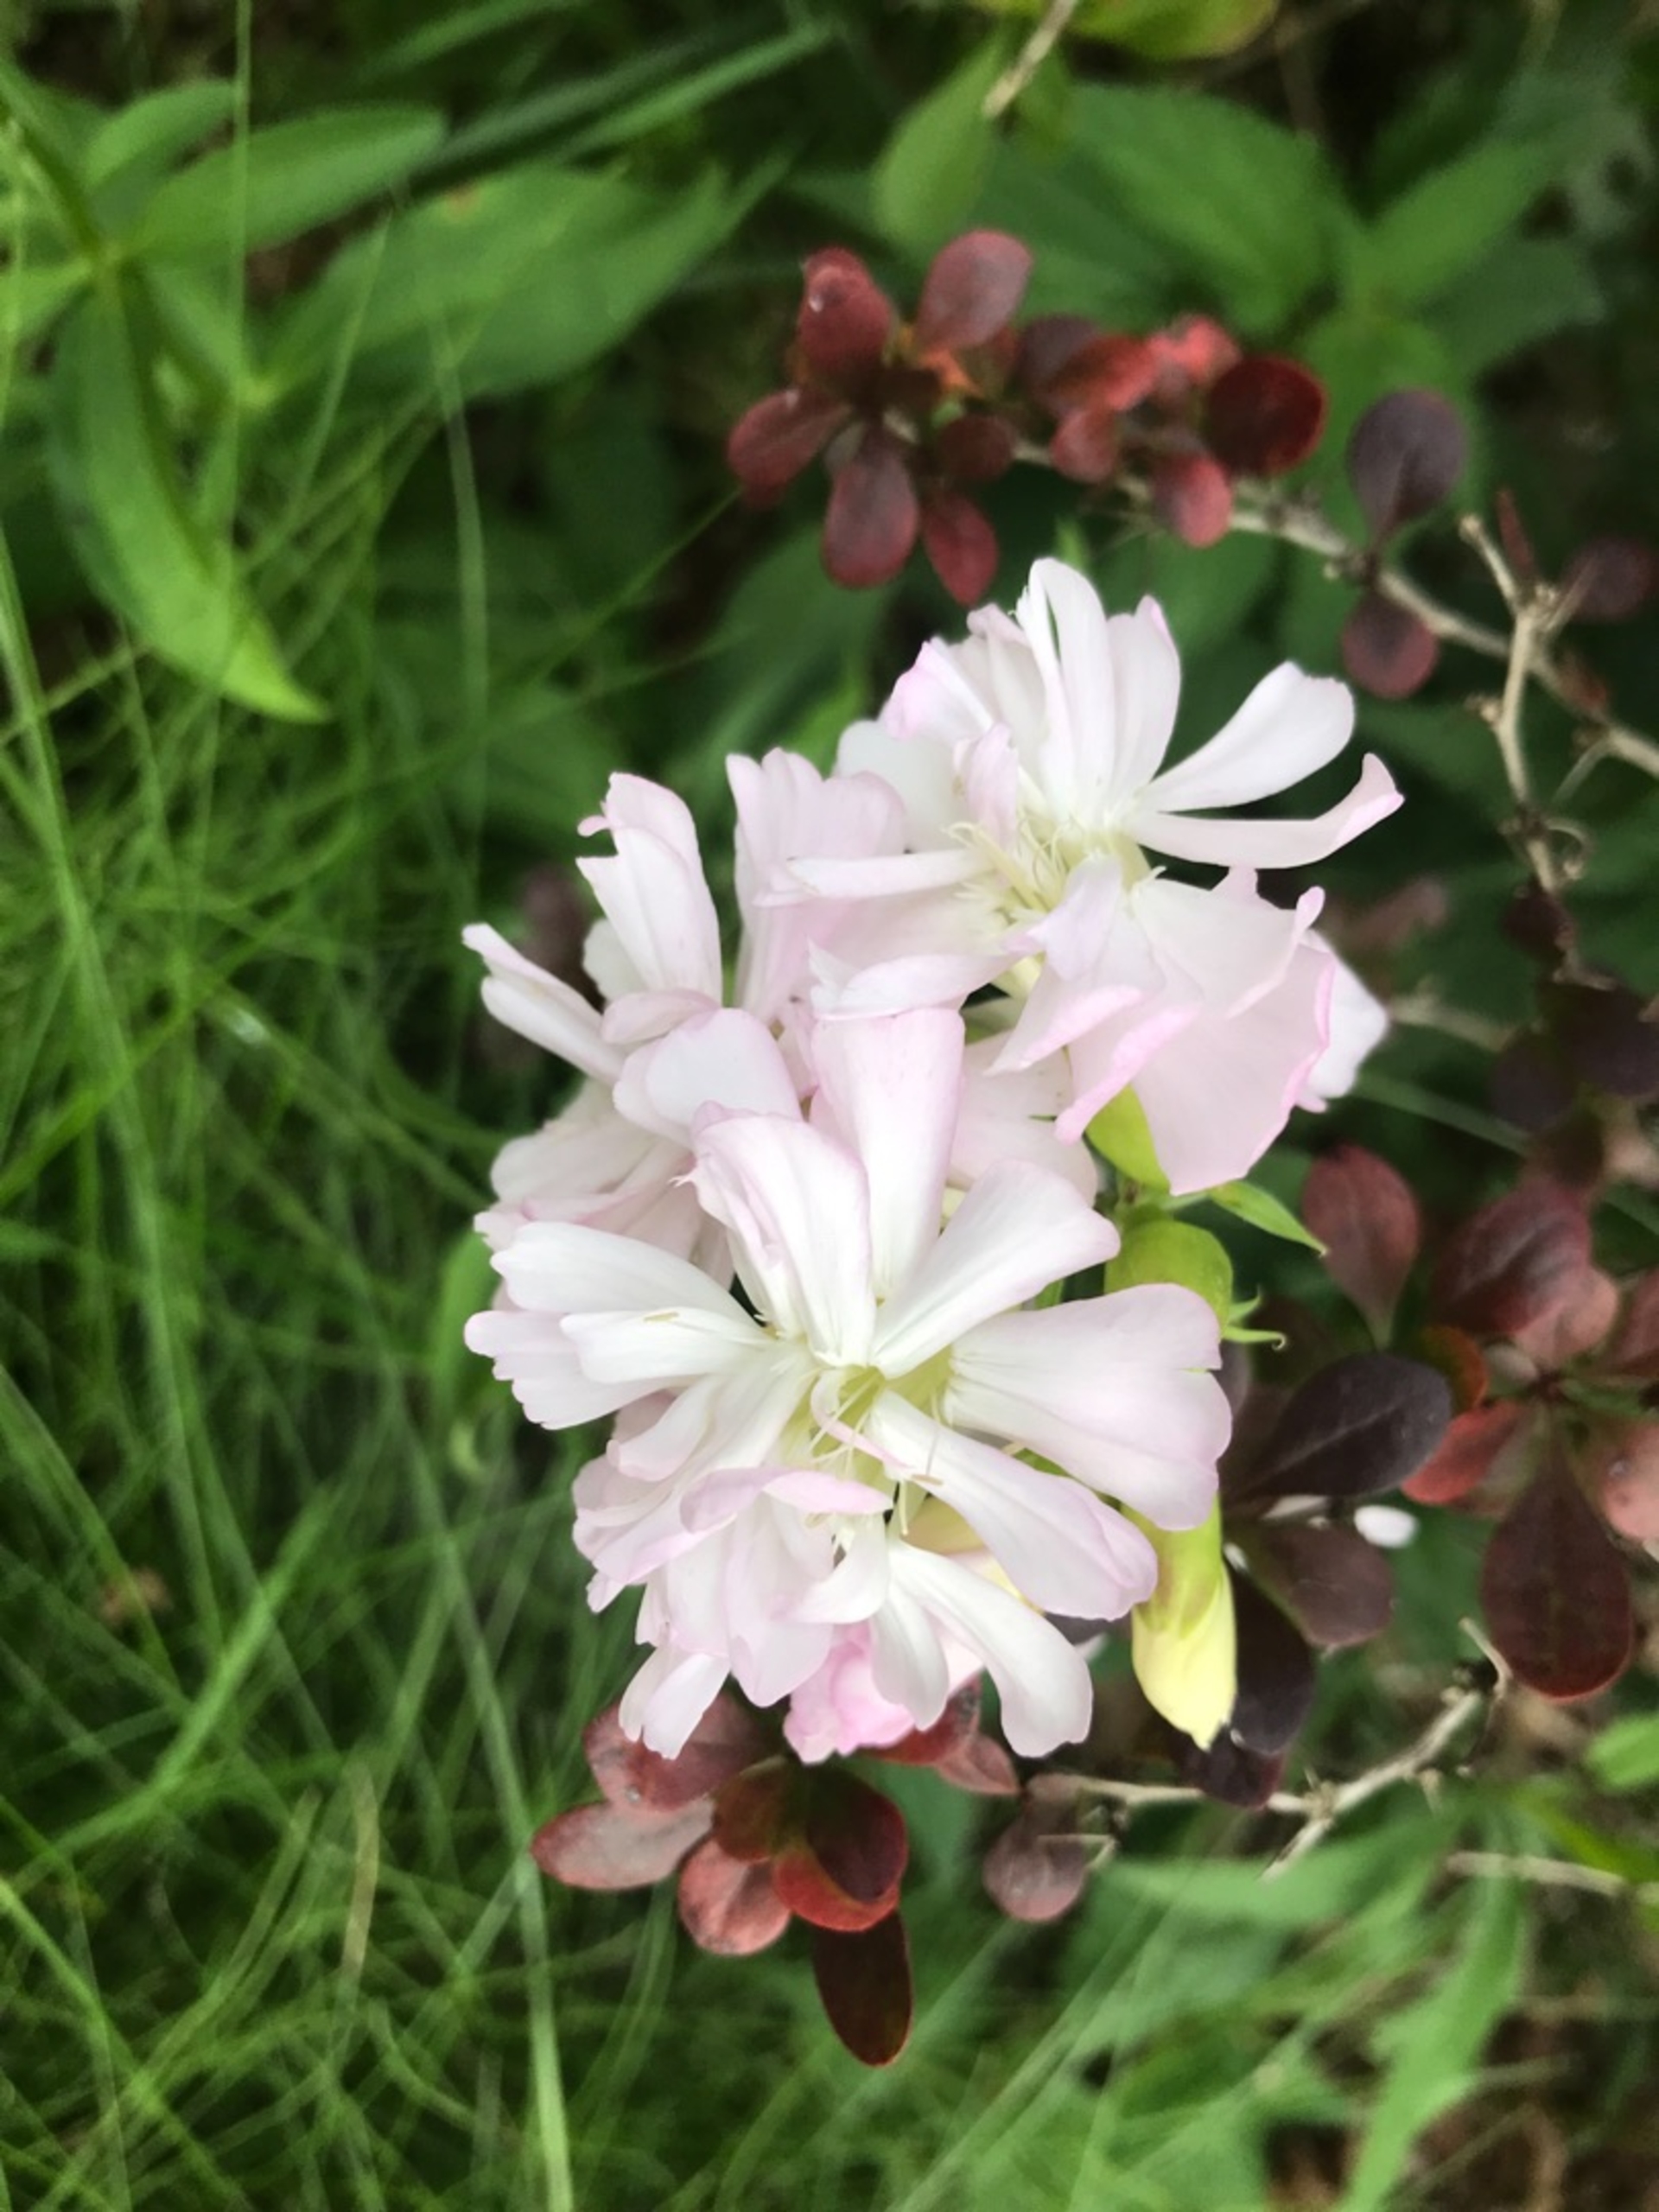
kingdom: Plantae
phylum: Tracheophyta
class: Magnoliopsida
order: Caryophyllales
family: Caryophyllaceae
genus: Saponaria
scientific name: Saponaria officinalis
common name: Sæbeurt
